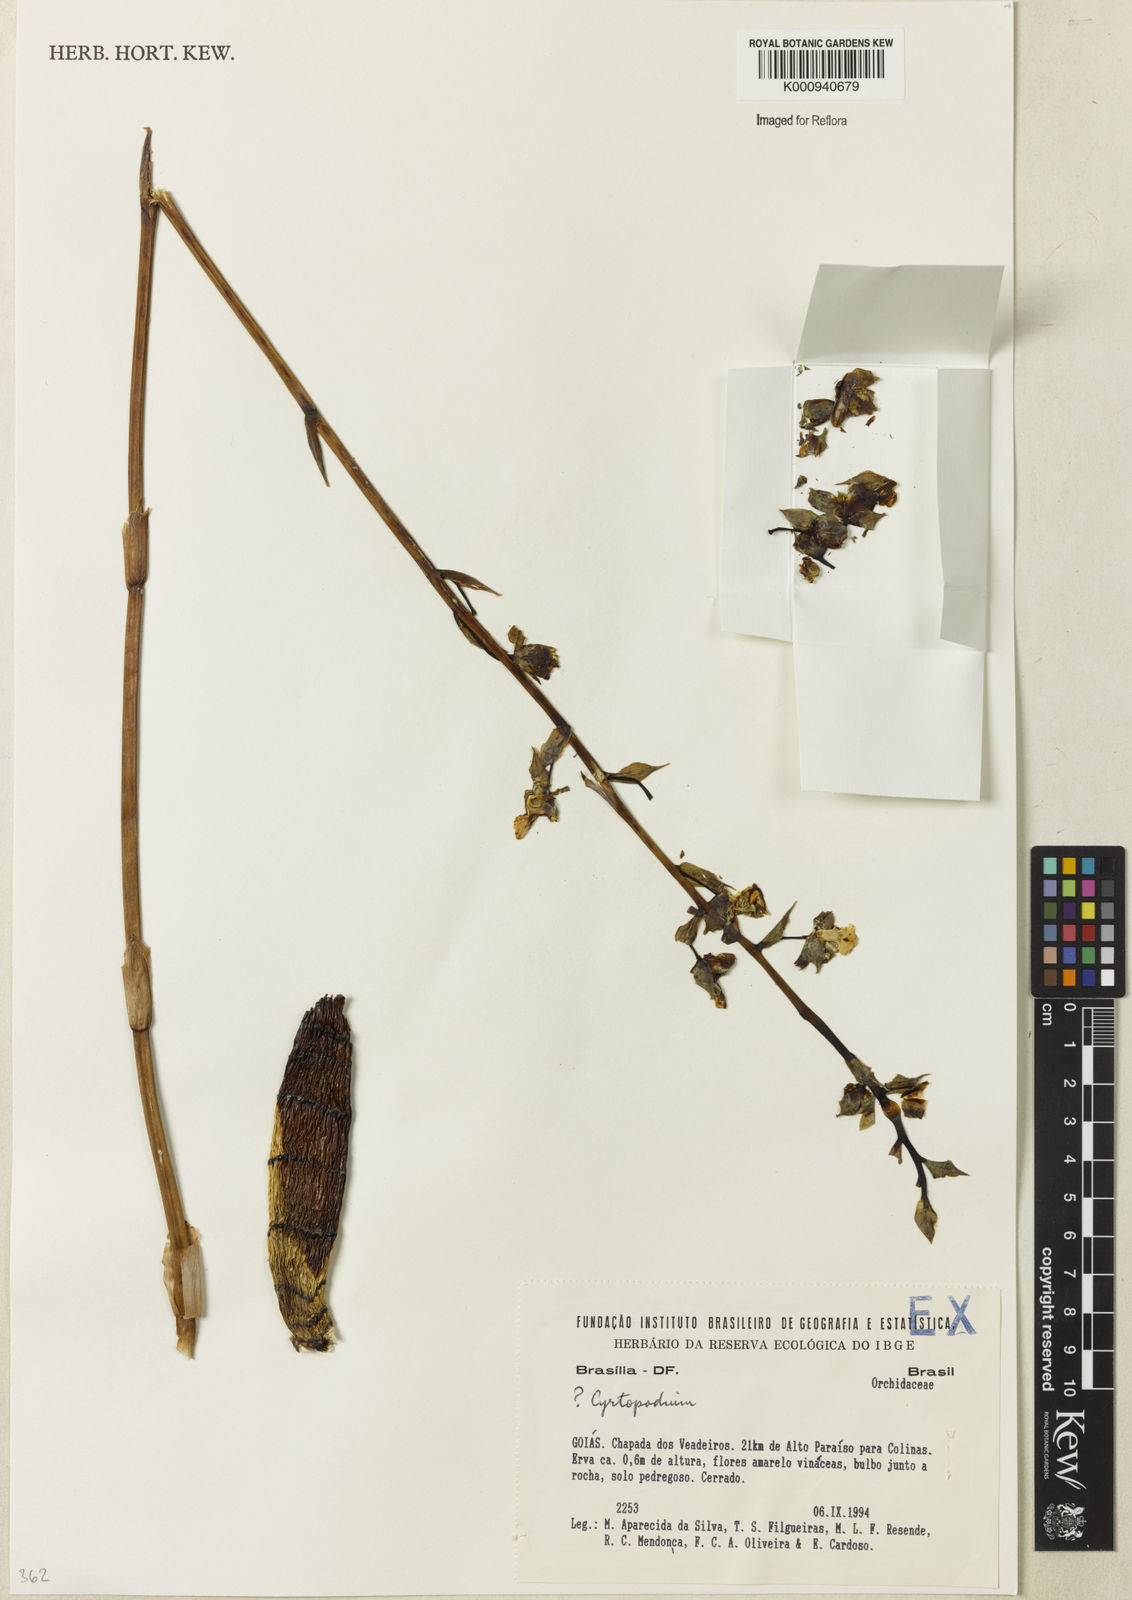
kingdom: Plantae
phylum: Tracheophyta
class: Liliopsida
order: Asparagales
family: Orchidaceae
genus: Cyrtopodium
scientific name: Cyrtopodium
